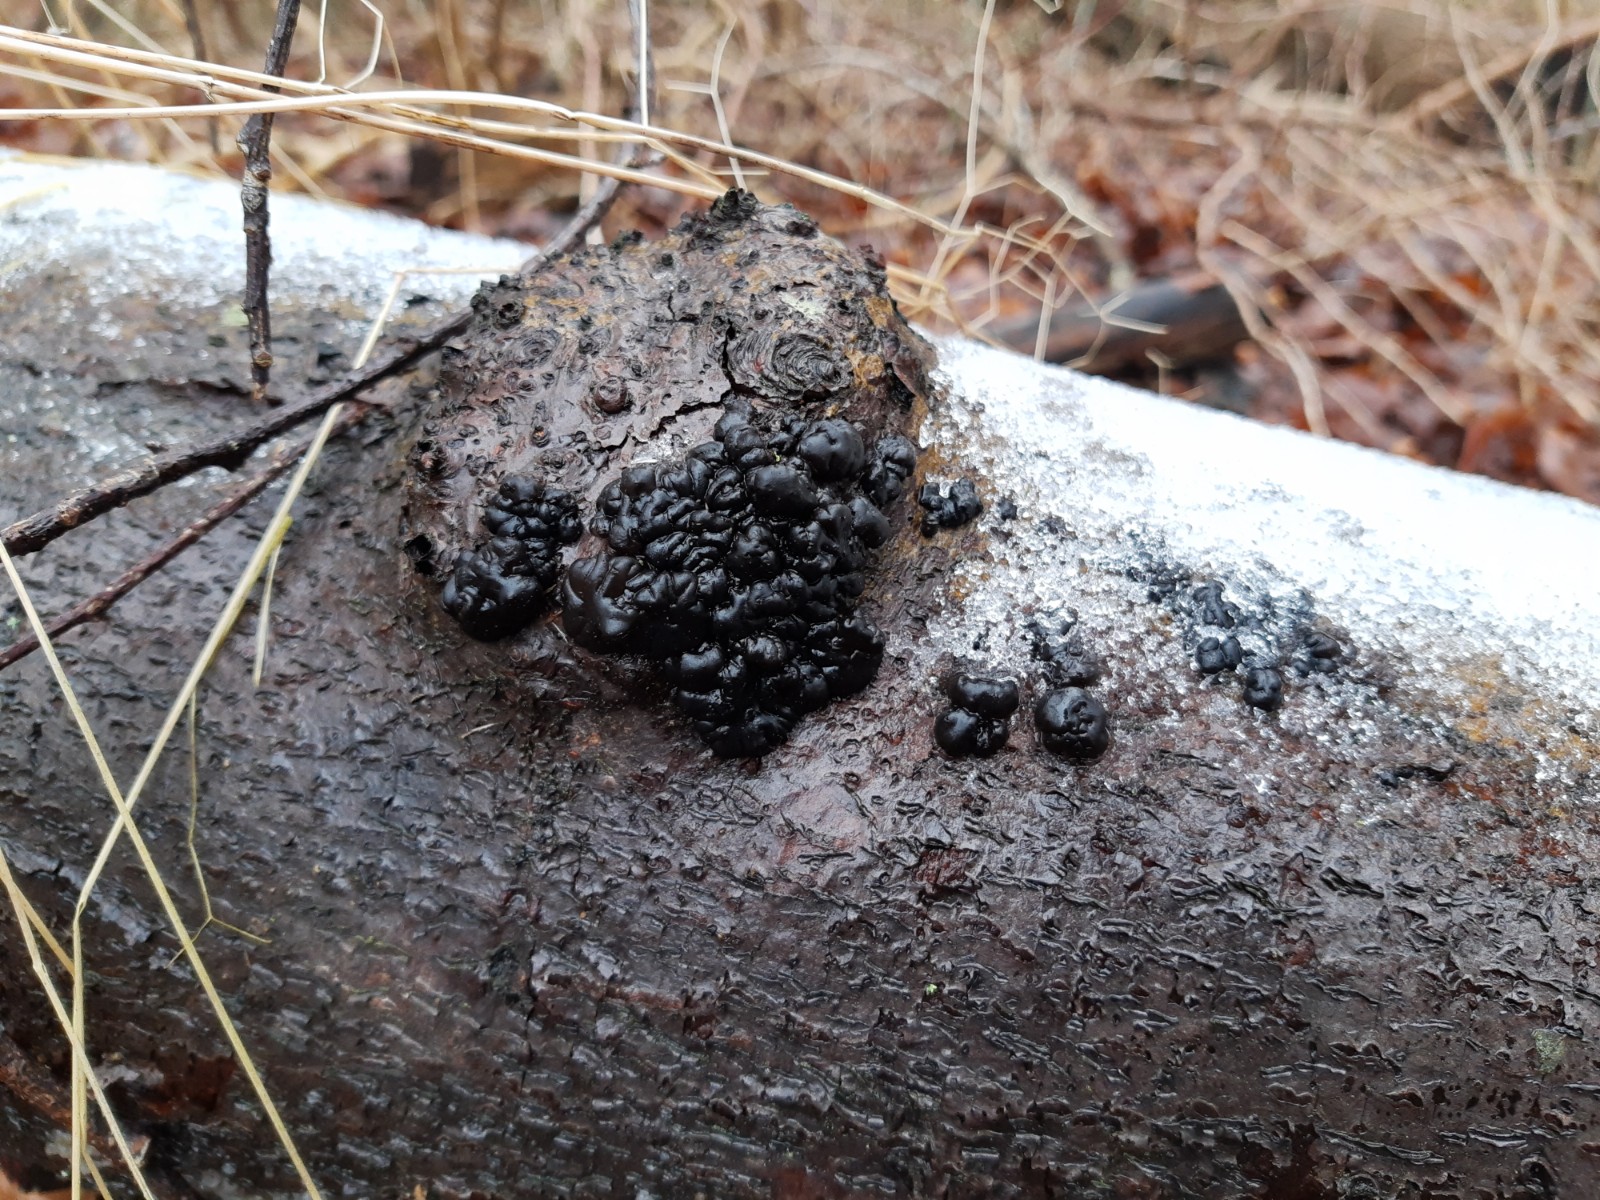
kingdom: Fungi
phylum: Basidiomycota
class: Agaricomycetes
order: Auriculariales
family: Auriculariaceae
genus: Exidia
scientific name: Exidia nigricans
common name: almindelig bævretop
